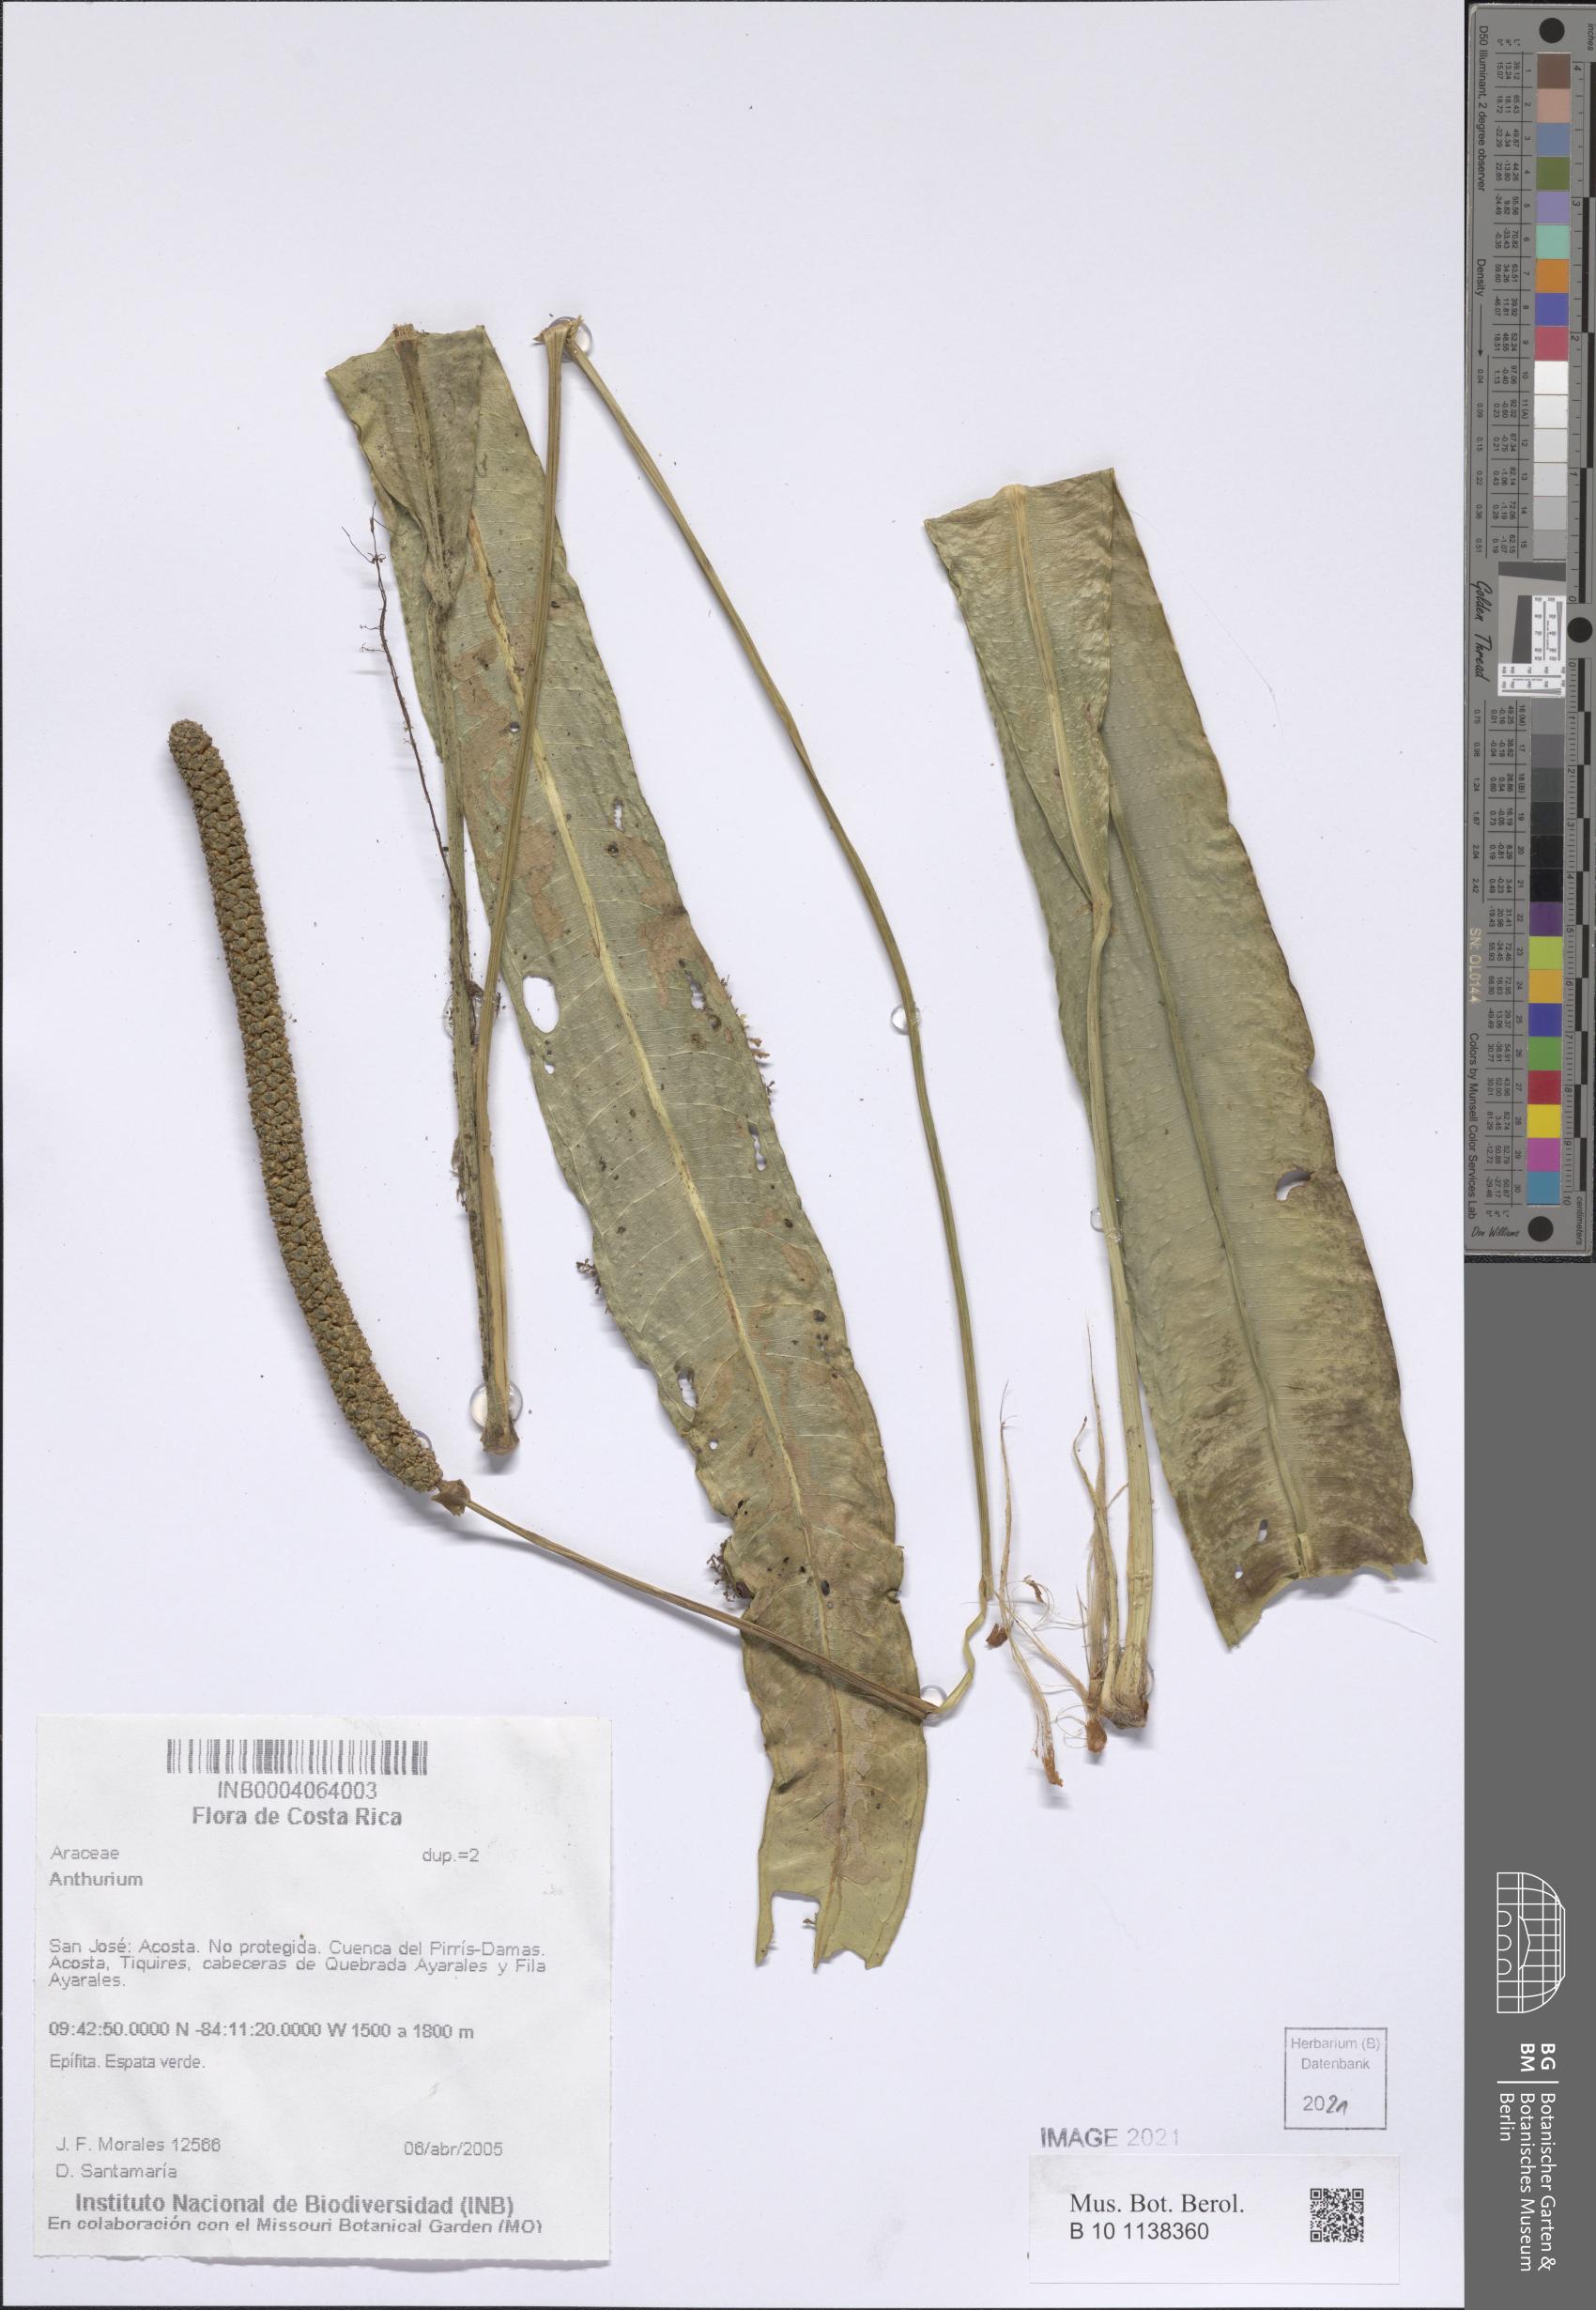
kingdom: Plantae
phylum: Tracheophyta
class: Liliopsida
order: Alismatales
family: Araceae
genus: Anthurium
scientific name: Anthurium
